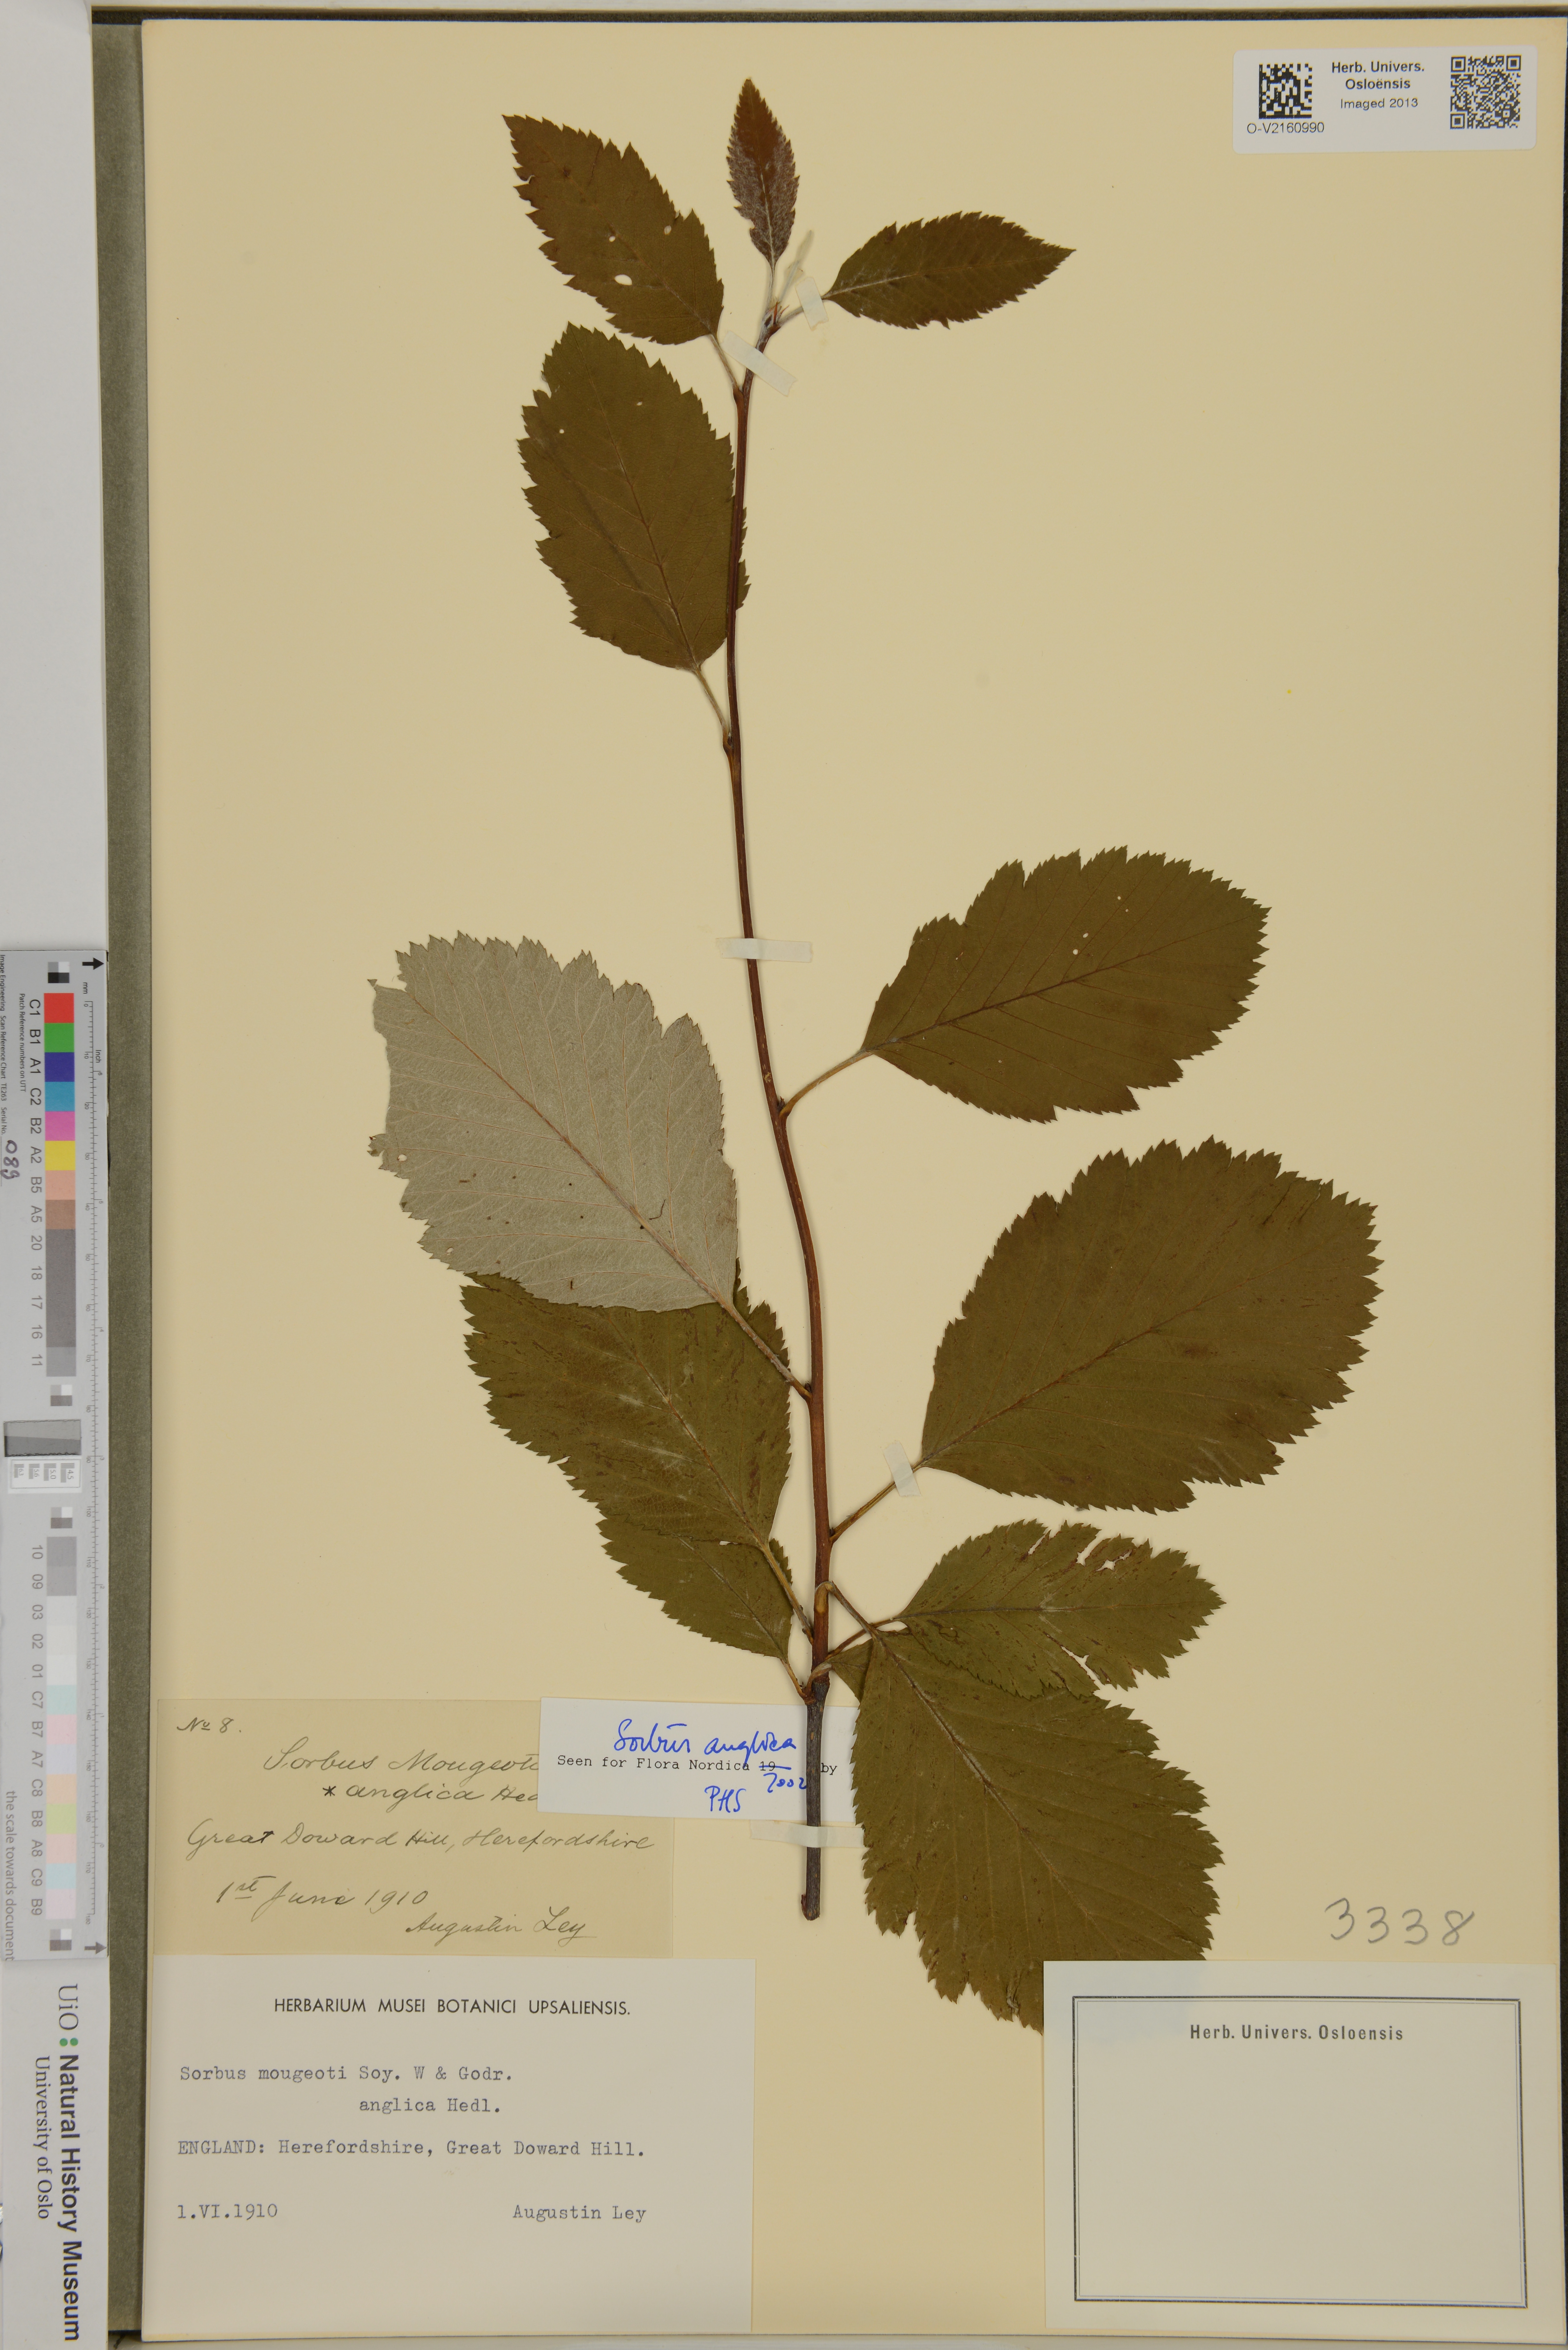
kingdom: Plantae
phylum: Tracheophyta
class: Magnoliopsida
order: Rosales
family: Rosaceae
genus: Hedlundia
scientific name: Hedlundia anglica
